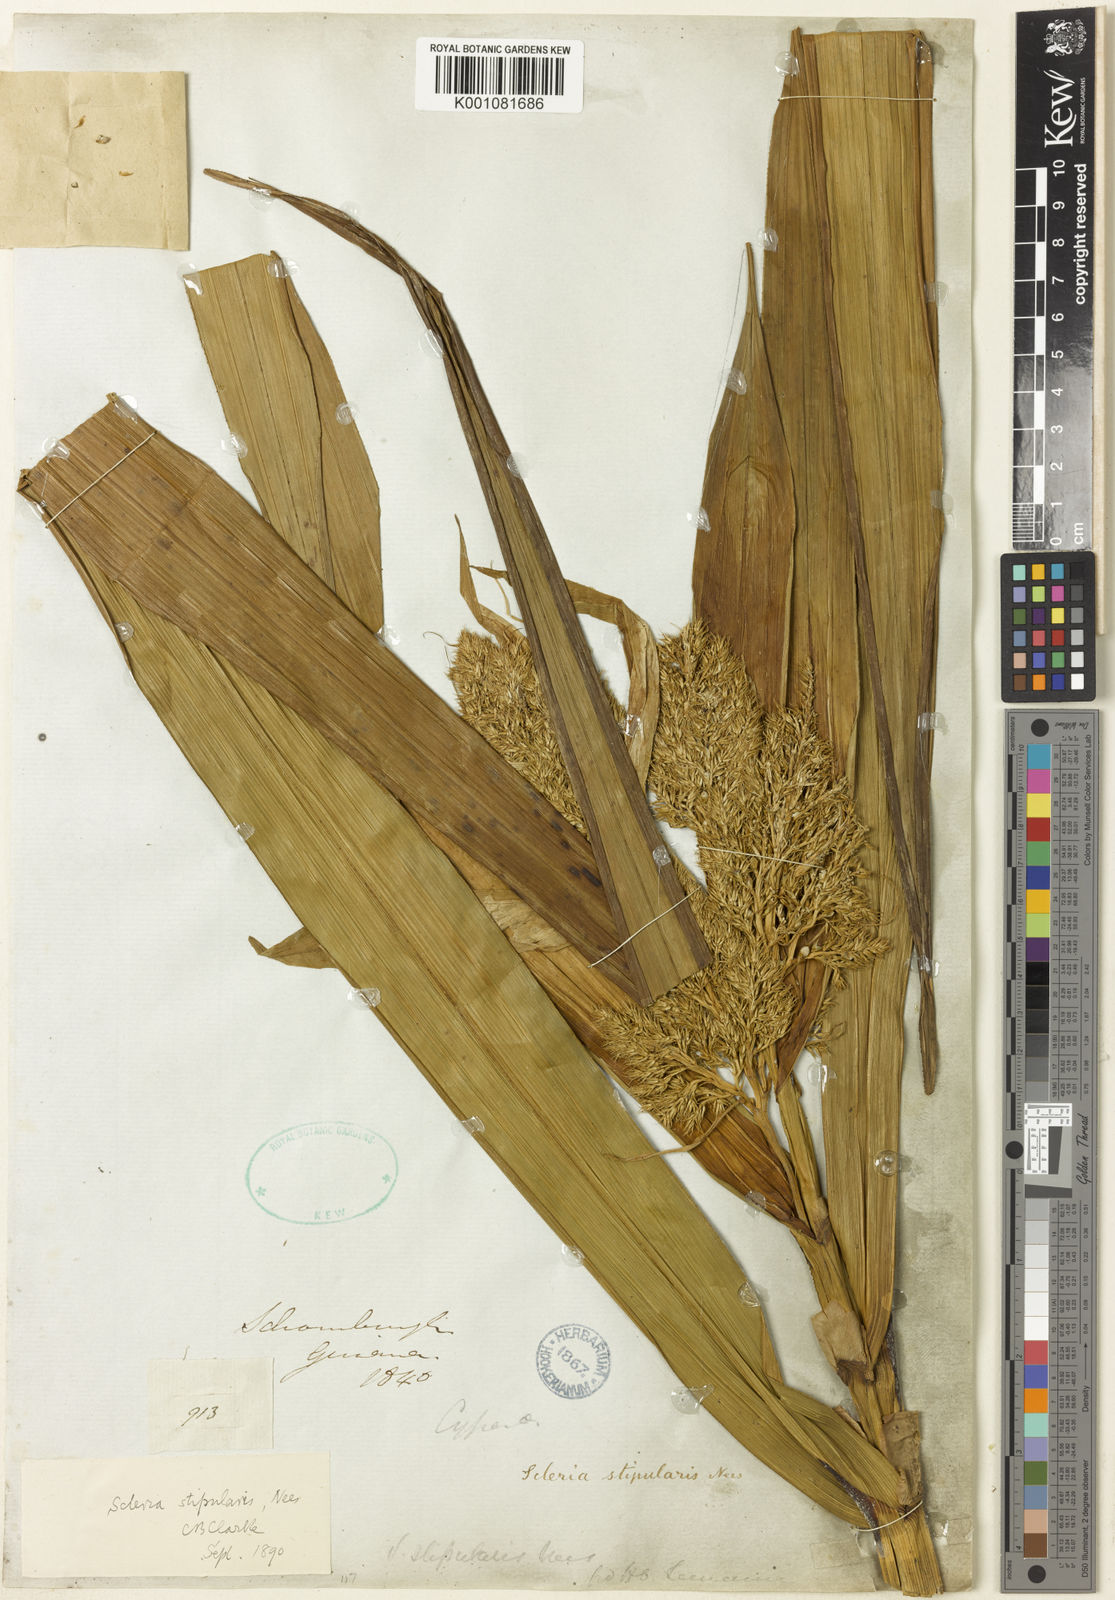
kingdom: Plantae
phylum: Tracheophyta
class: Liliopsida
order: Poales
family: Cyperaceae
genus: Scleria
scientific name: Scleria stipularis
